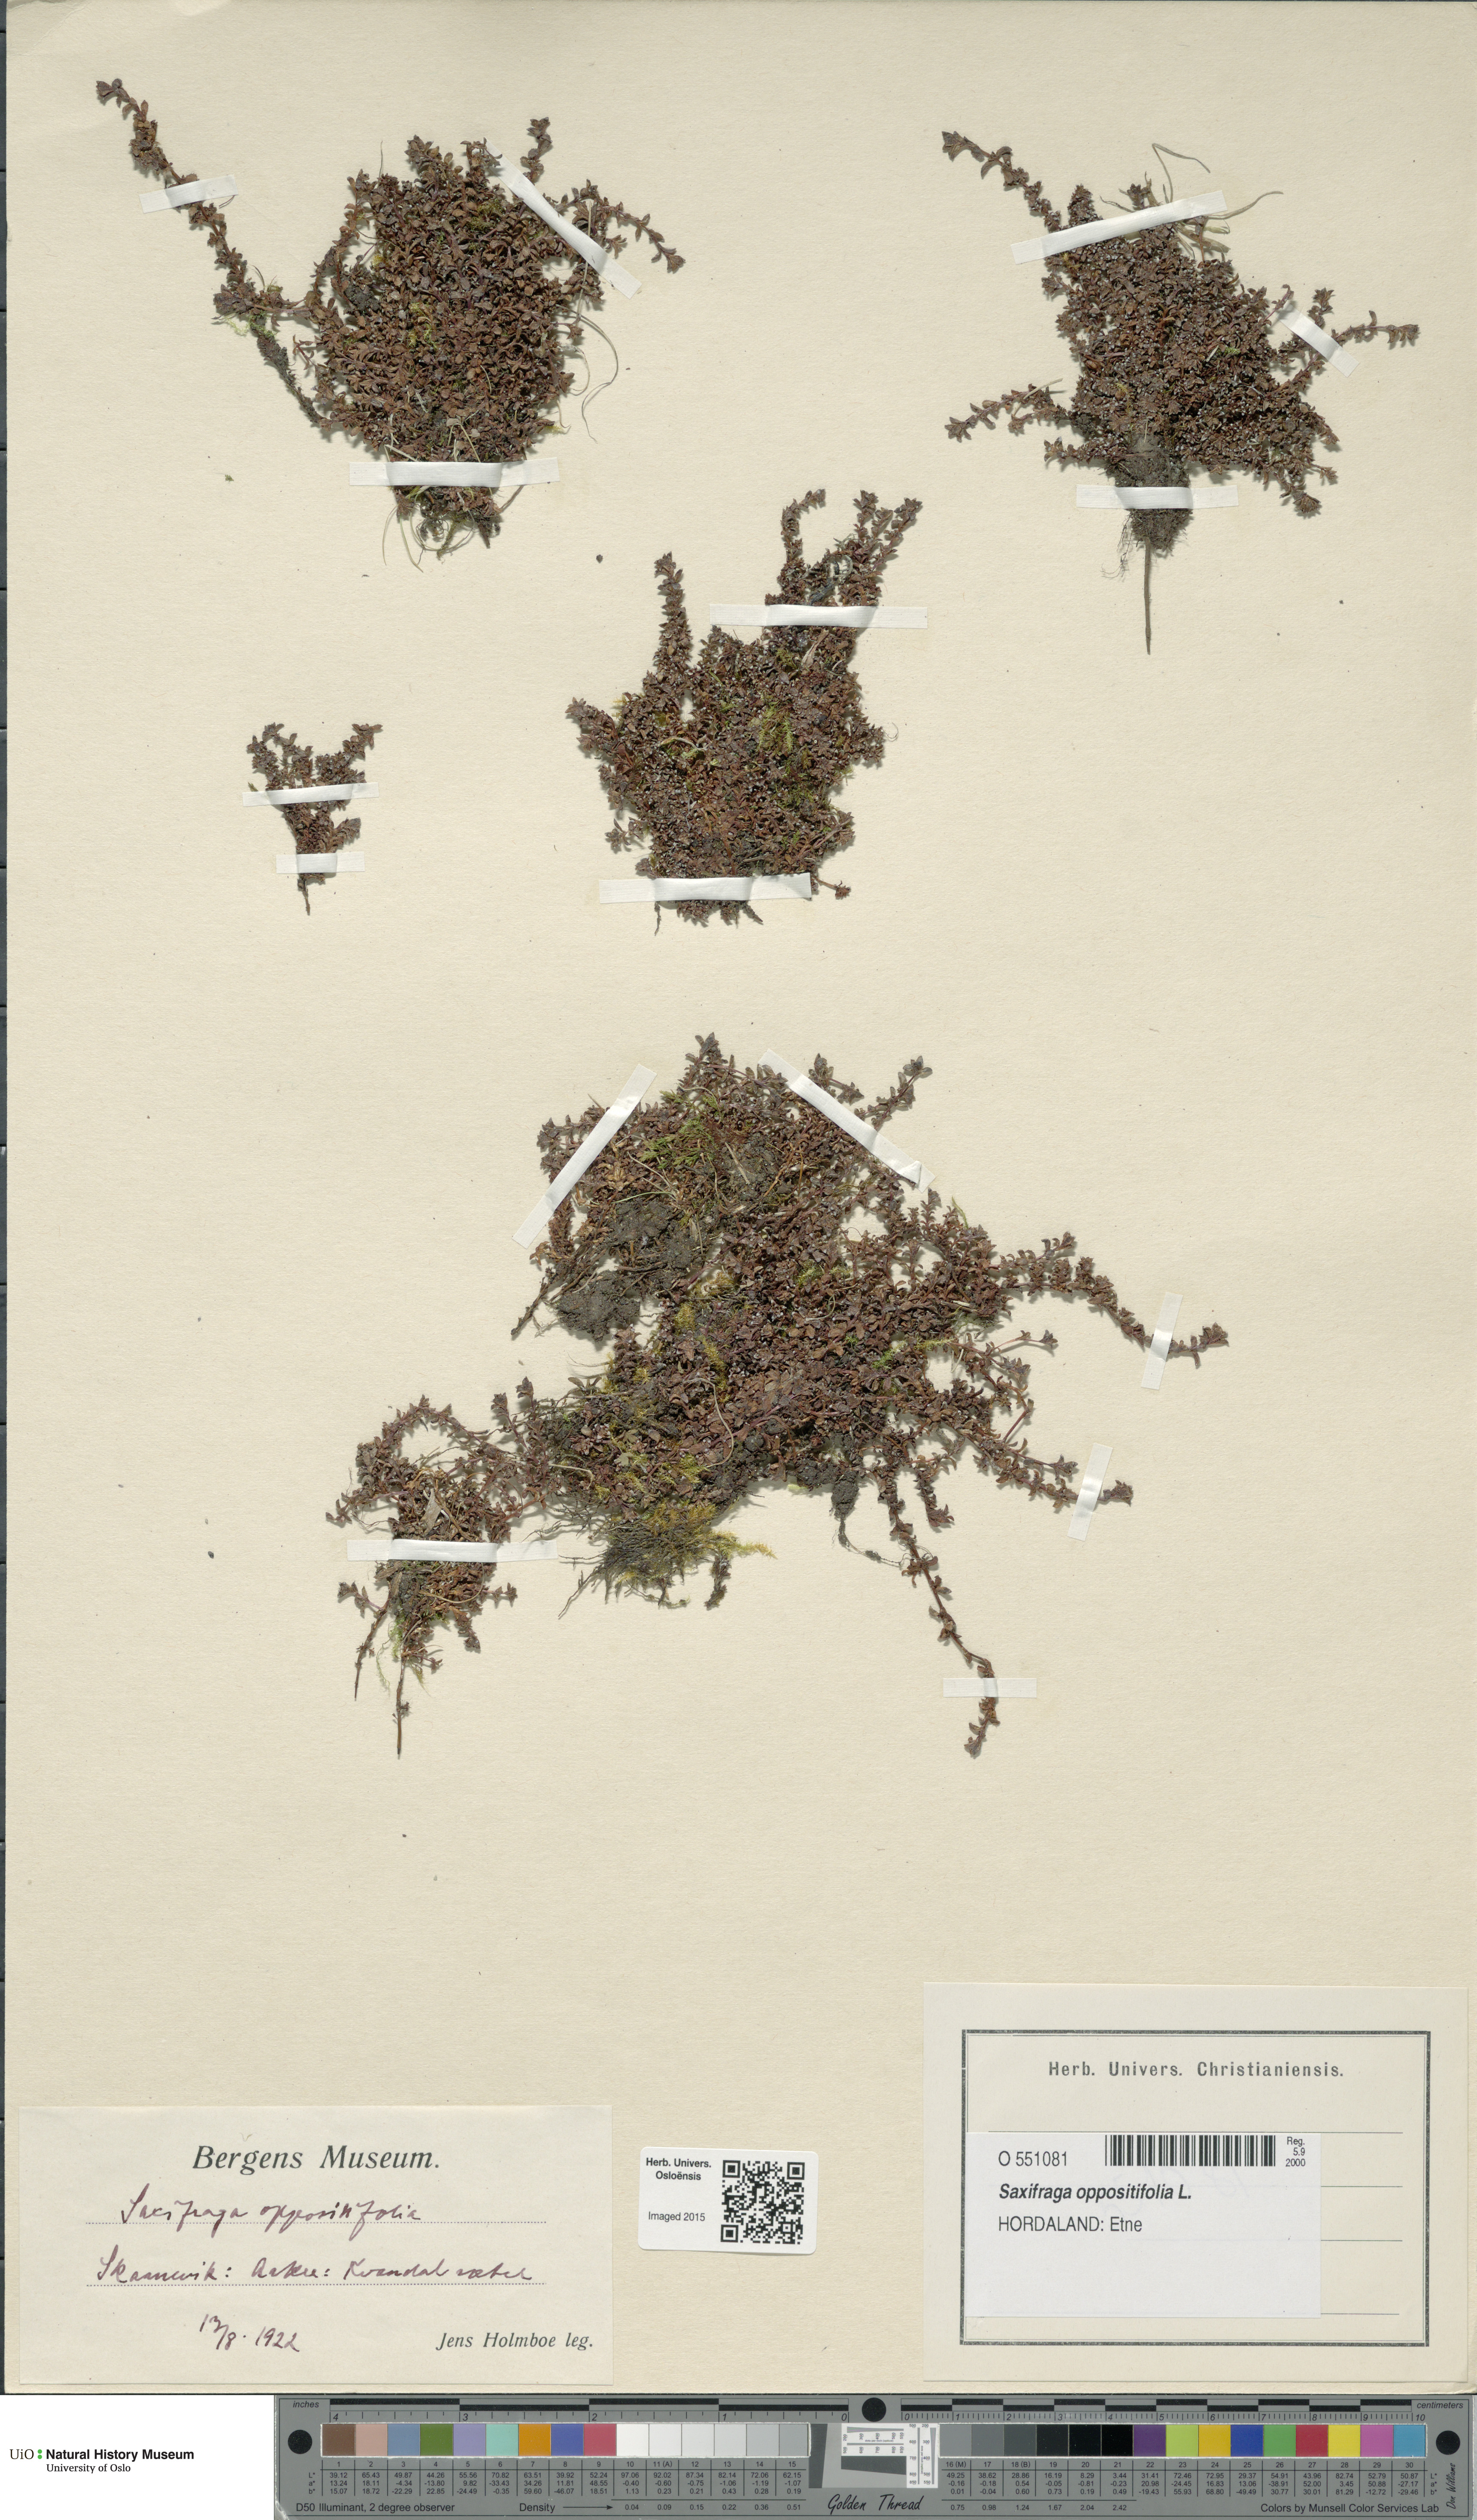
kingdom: Plantae
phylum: Tracheophyta
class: Magnoliopsida
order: Saxifragales
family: Saxifragaceae
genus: Saxifraga
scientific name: Saxifraga oppositifolia
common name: Purple saxifrage
